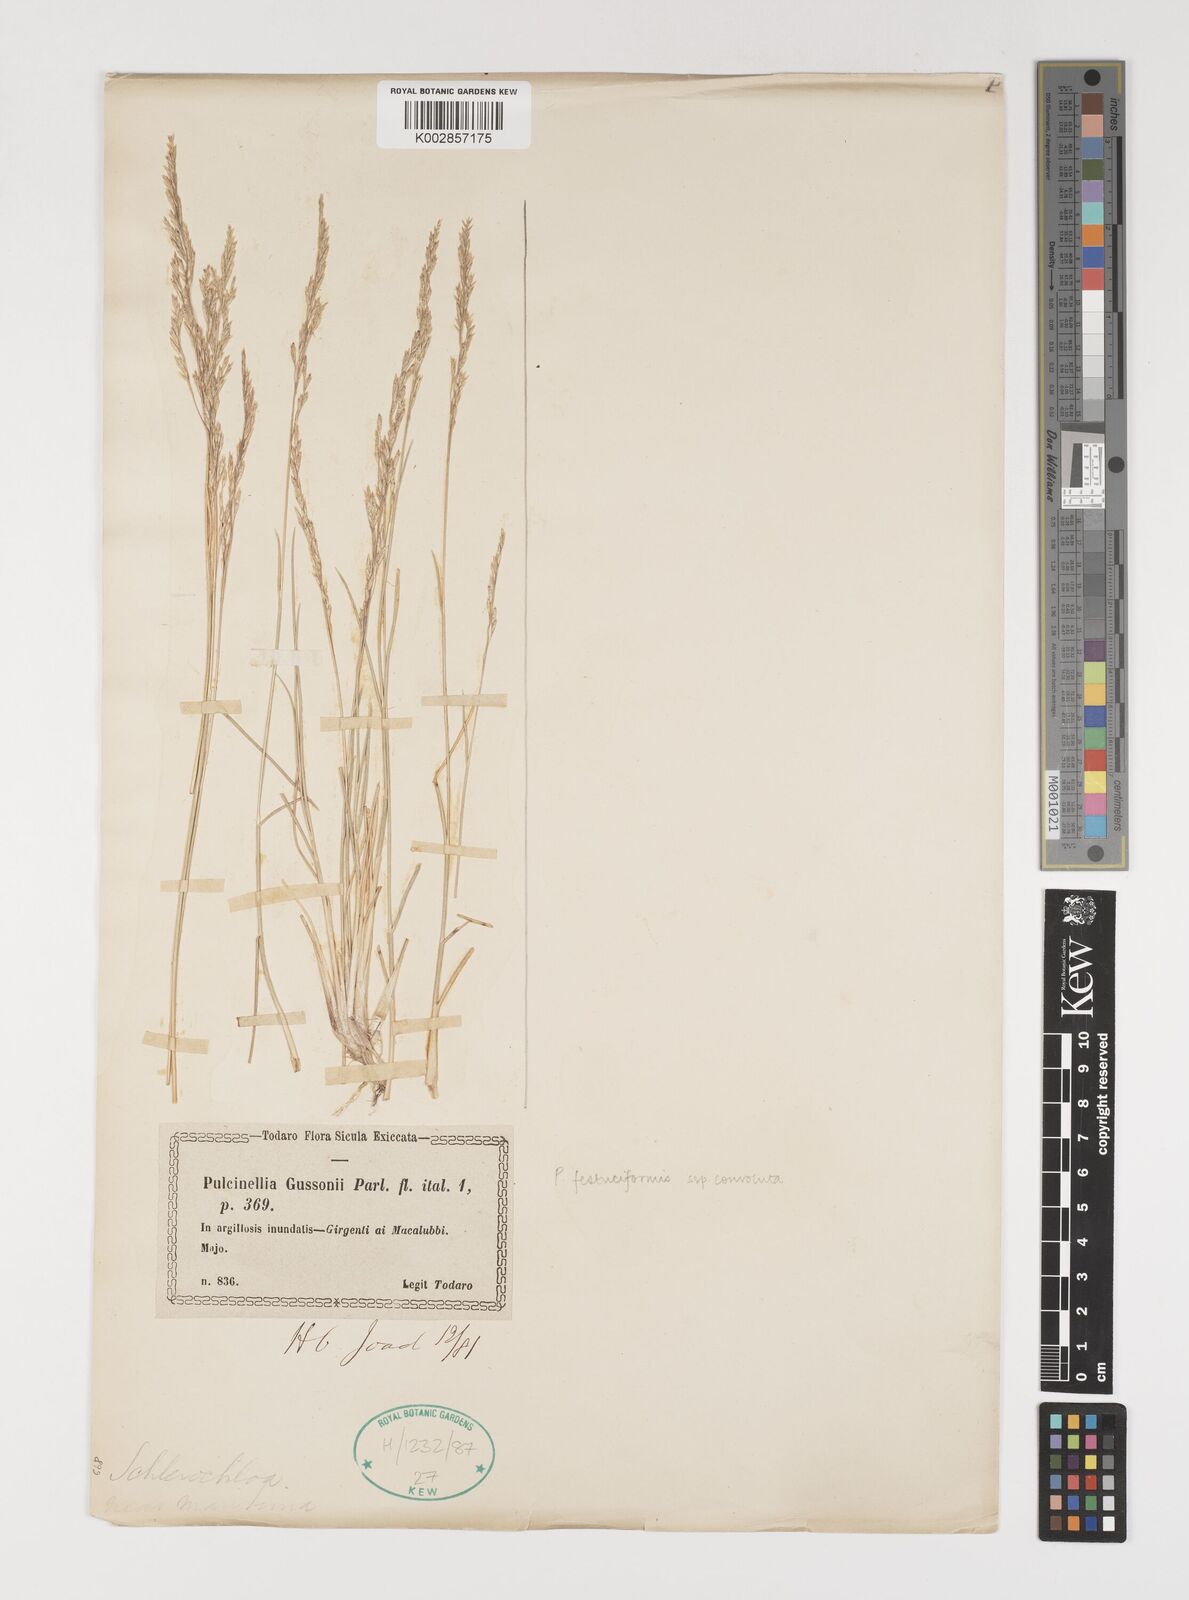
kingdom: Plantae
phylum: Tracheophyta
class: Liliopsida
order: Poales
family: Poaceae
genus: Puccinellia
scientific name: Puccinellia convoluta
